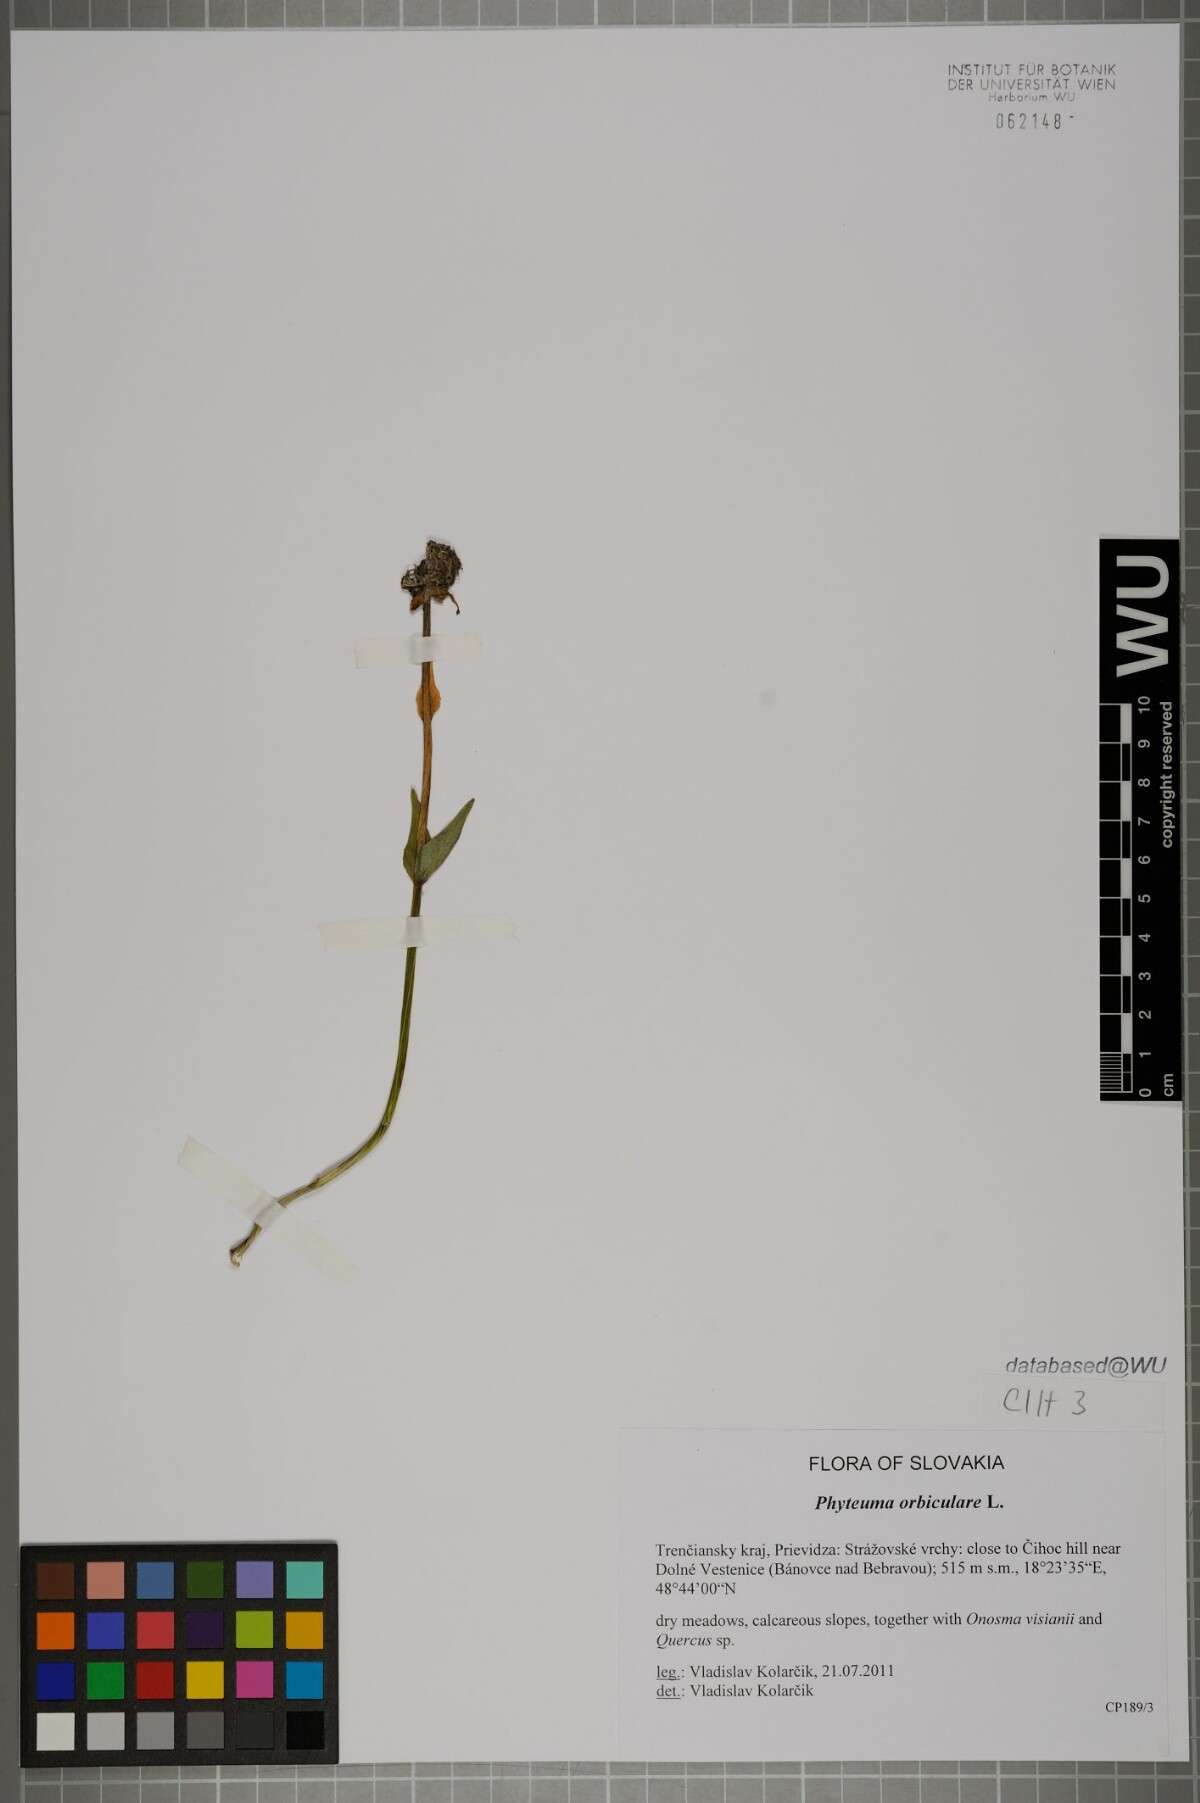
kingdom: Plantae
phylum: Tracheophyta
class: Magnoliopsida
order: Asterales
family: Campanulaceae
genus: Phyteuma
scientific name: Phyteuma orbiculare
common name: Round-headed rampion
